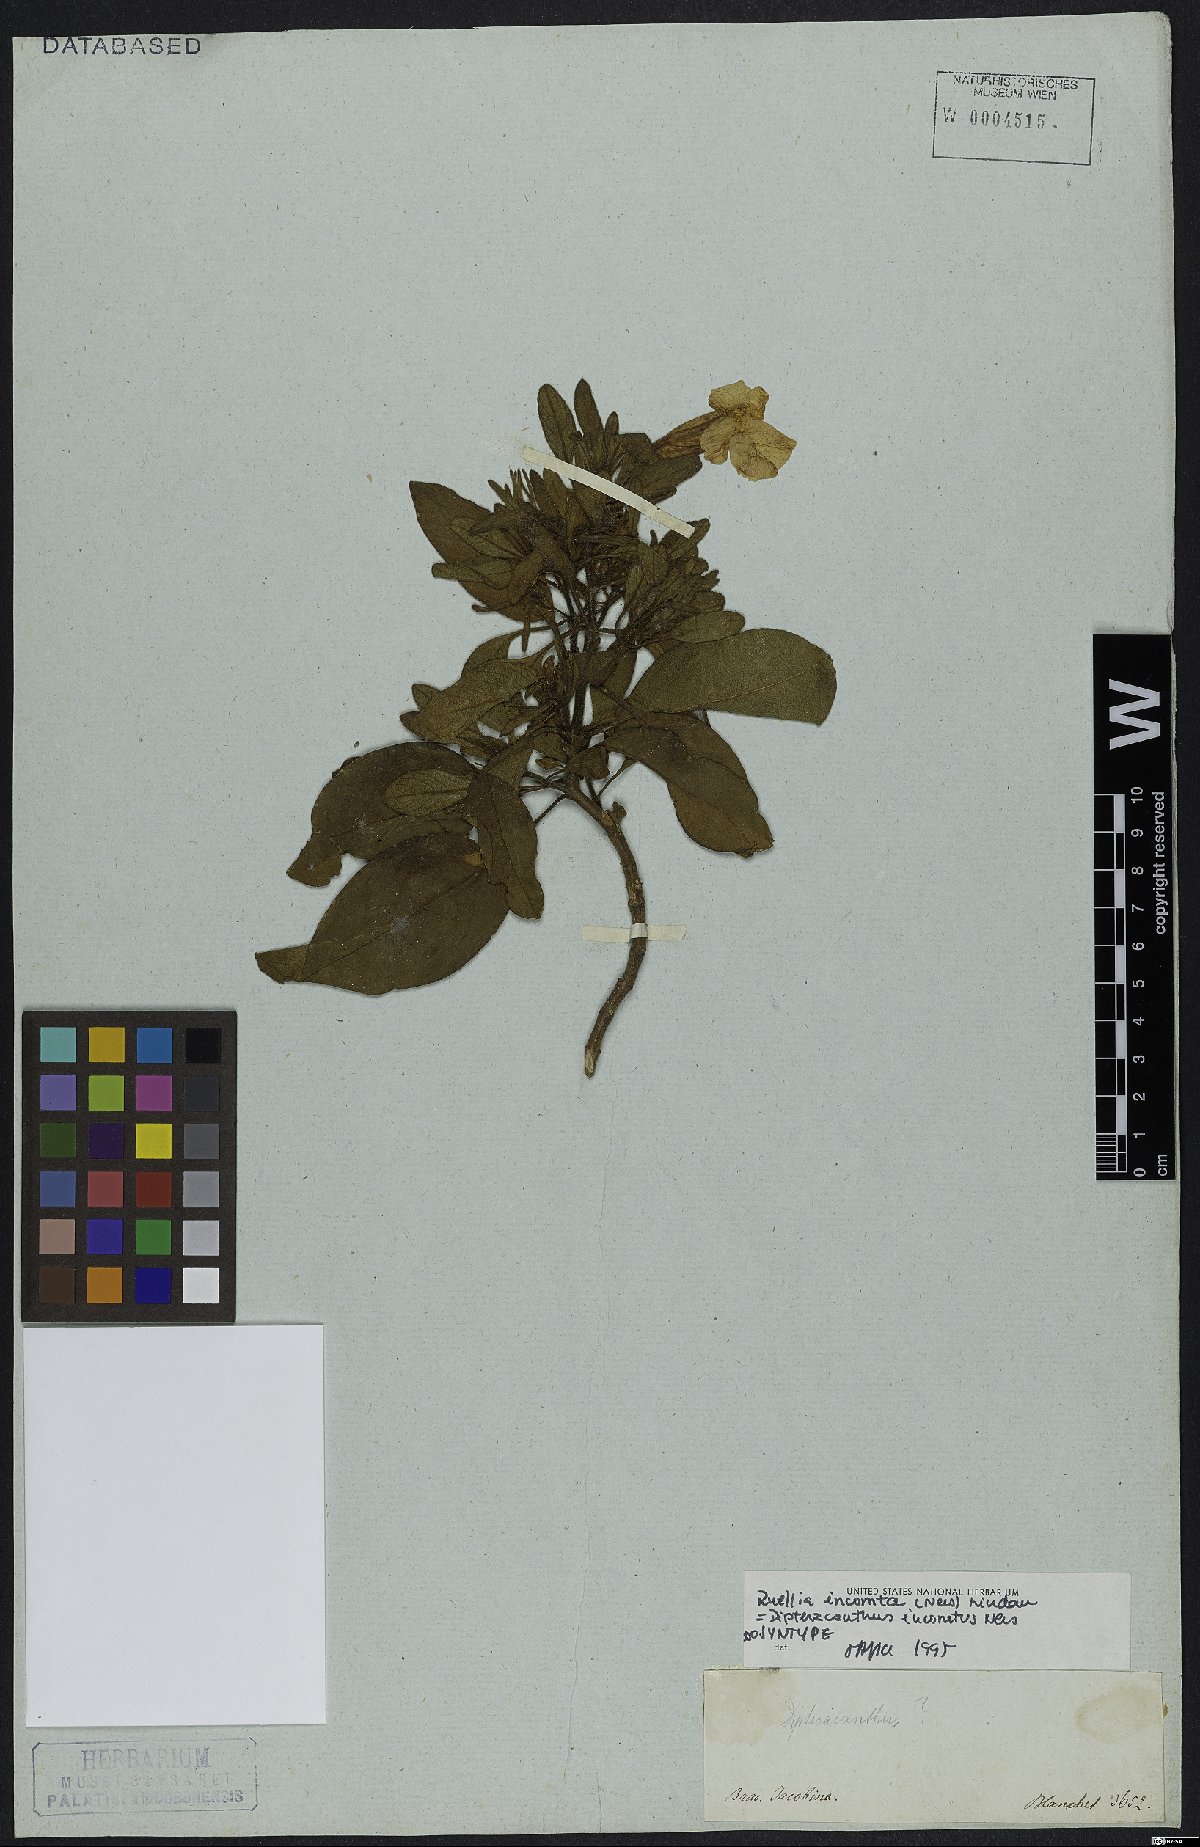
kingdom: Plantae
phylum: Tracheophyta
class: Magnoliopsida
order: Lamiales
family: Acanthaceae
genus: Ruellia
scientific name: Ruellia incomta
